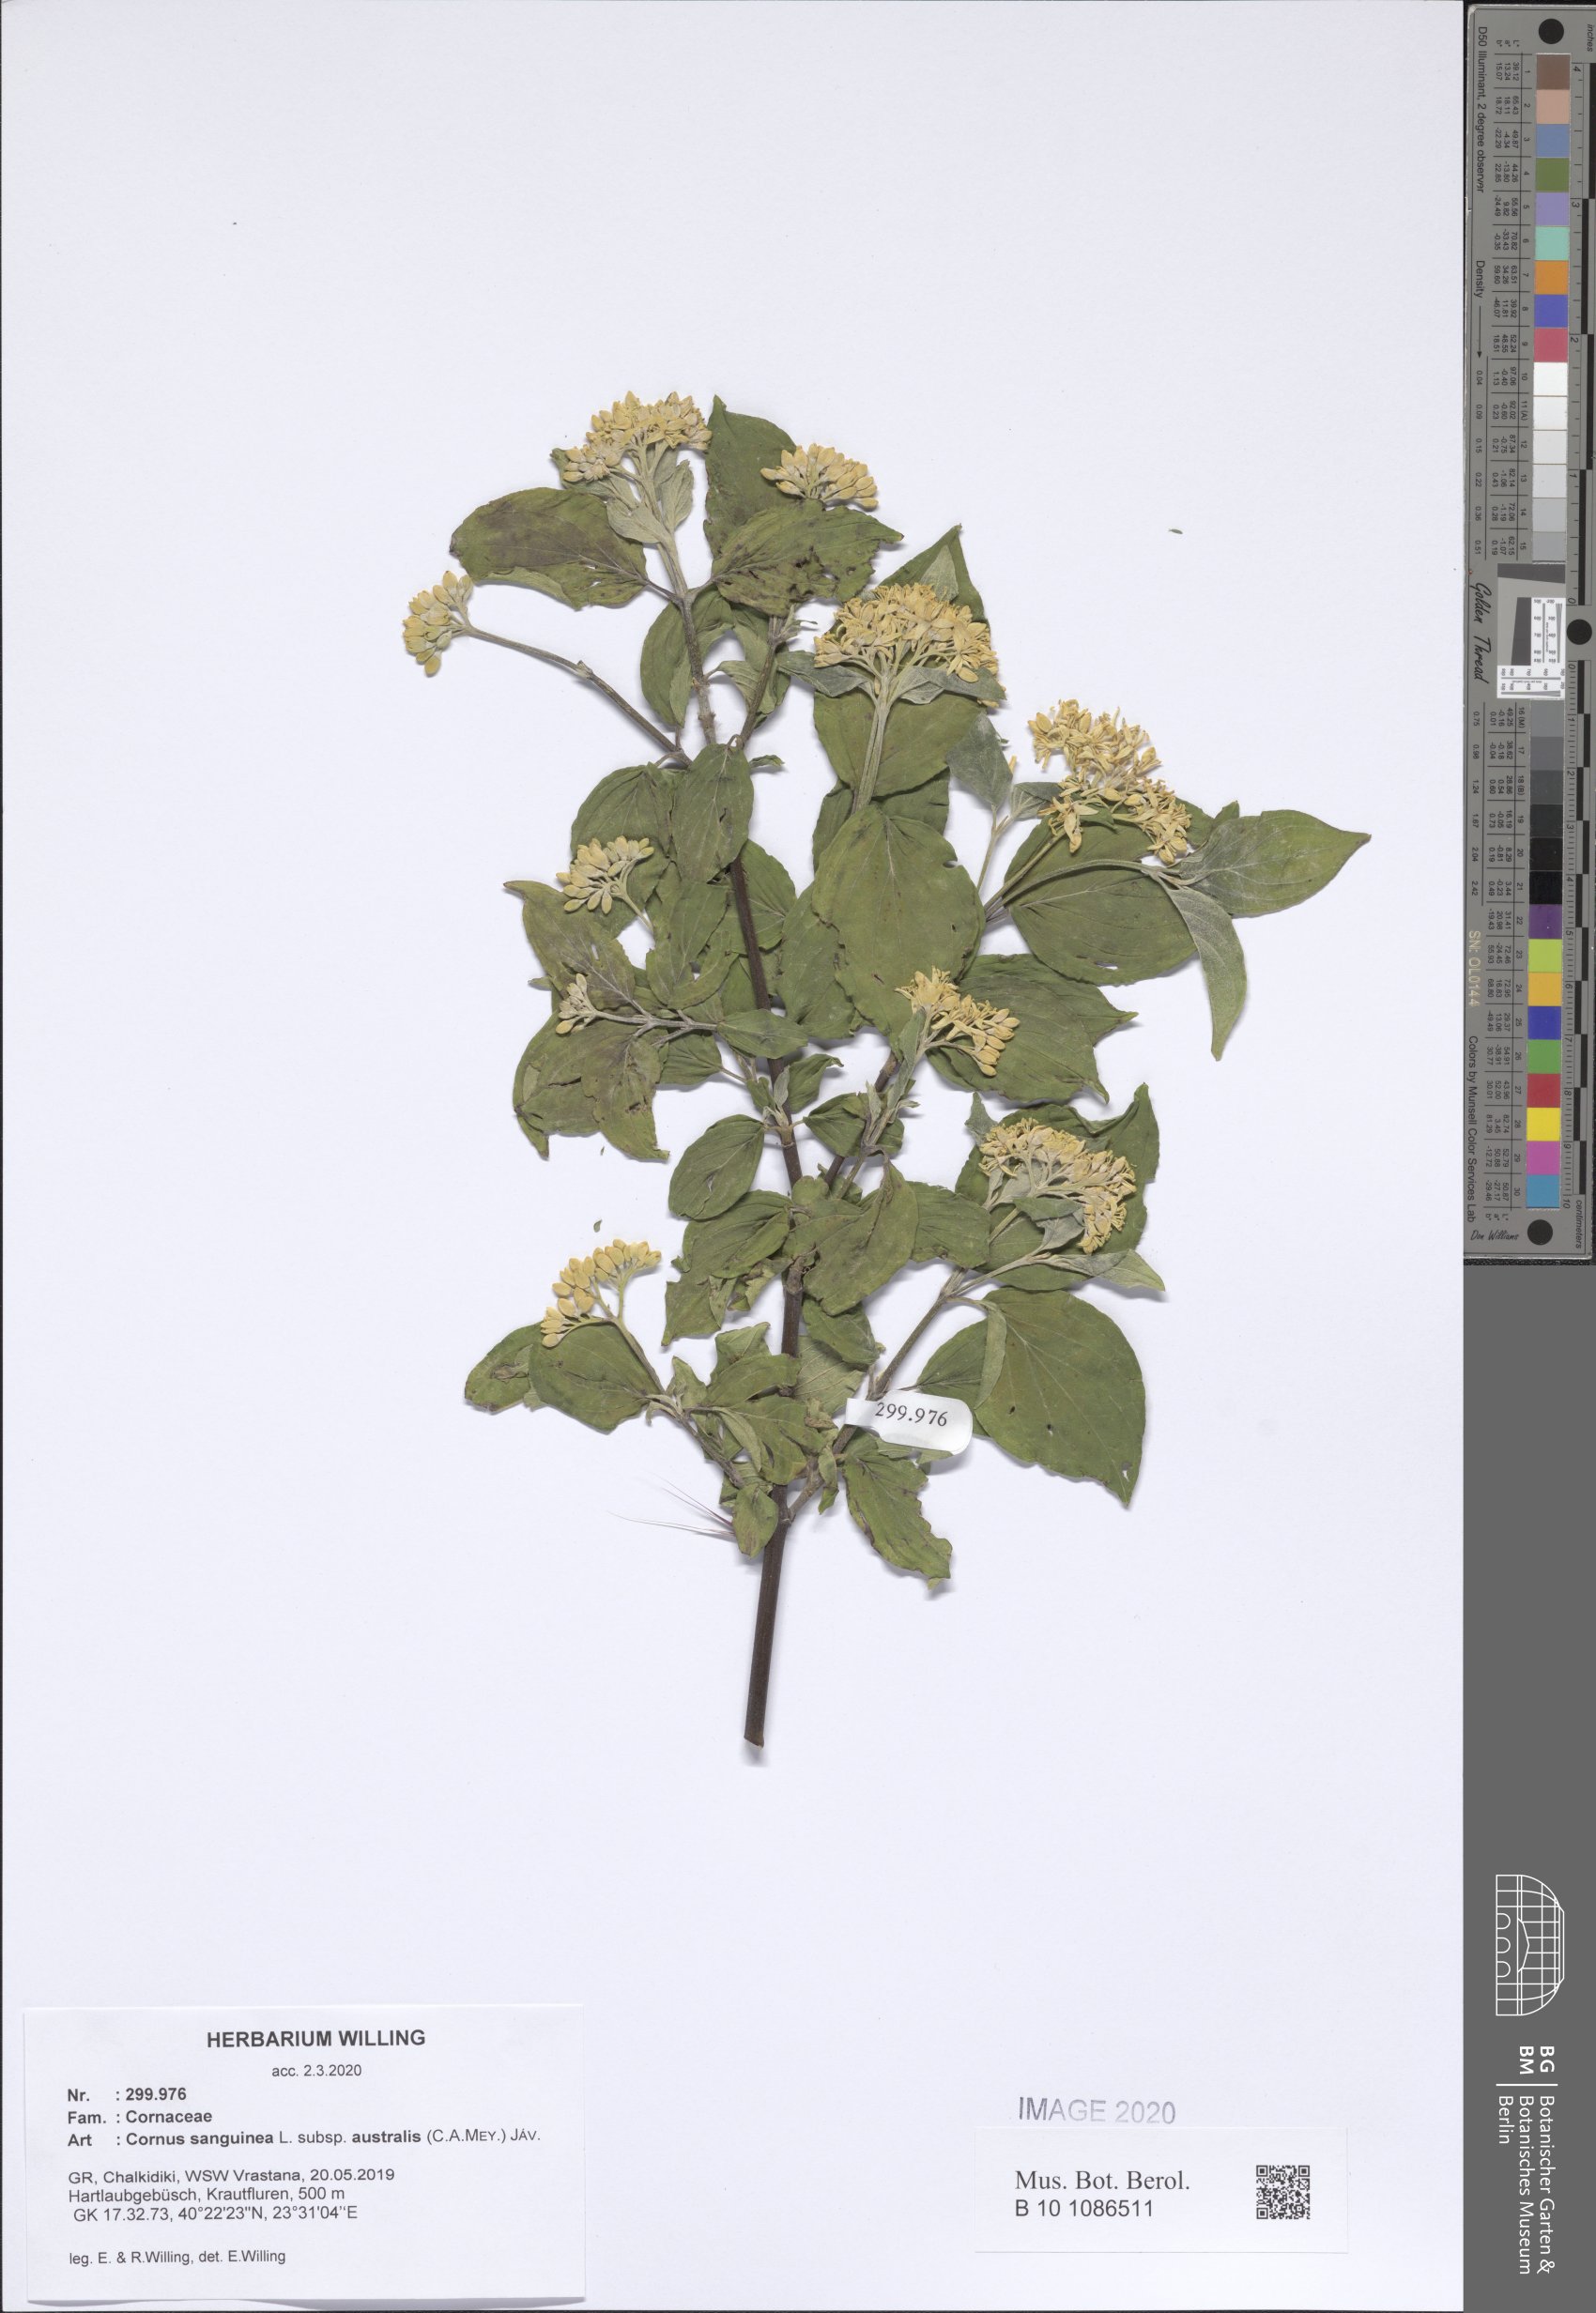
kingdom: Plantae
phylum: Tracheophyta
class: Magnoliopsida
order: Cornales
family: Cornaceae
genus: Cornus
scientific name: Cornus sanguinea
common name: Dogwood
